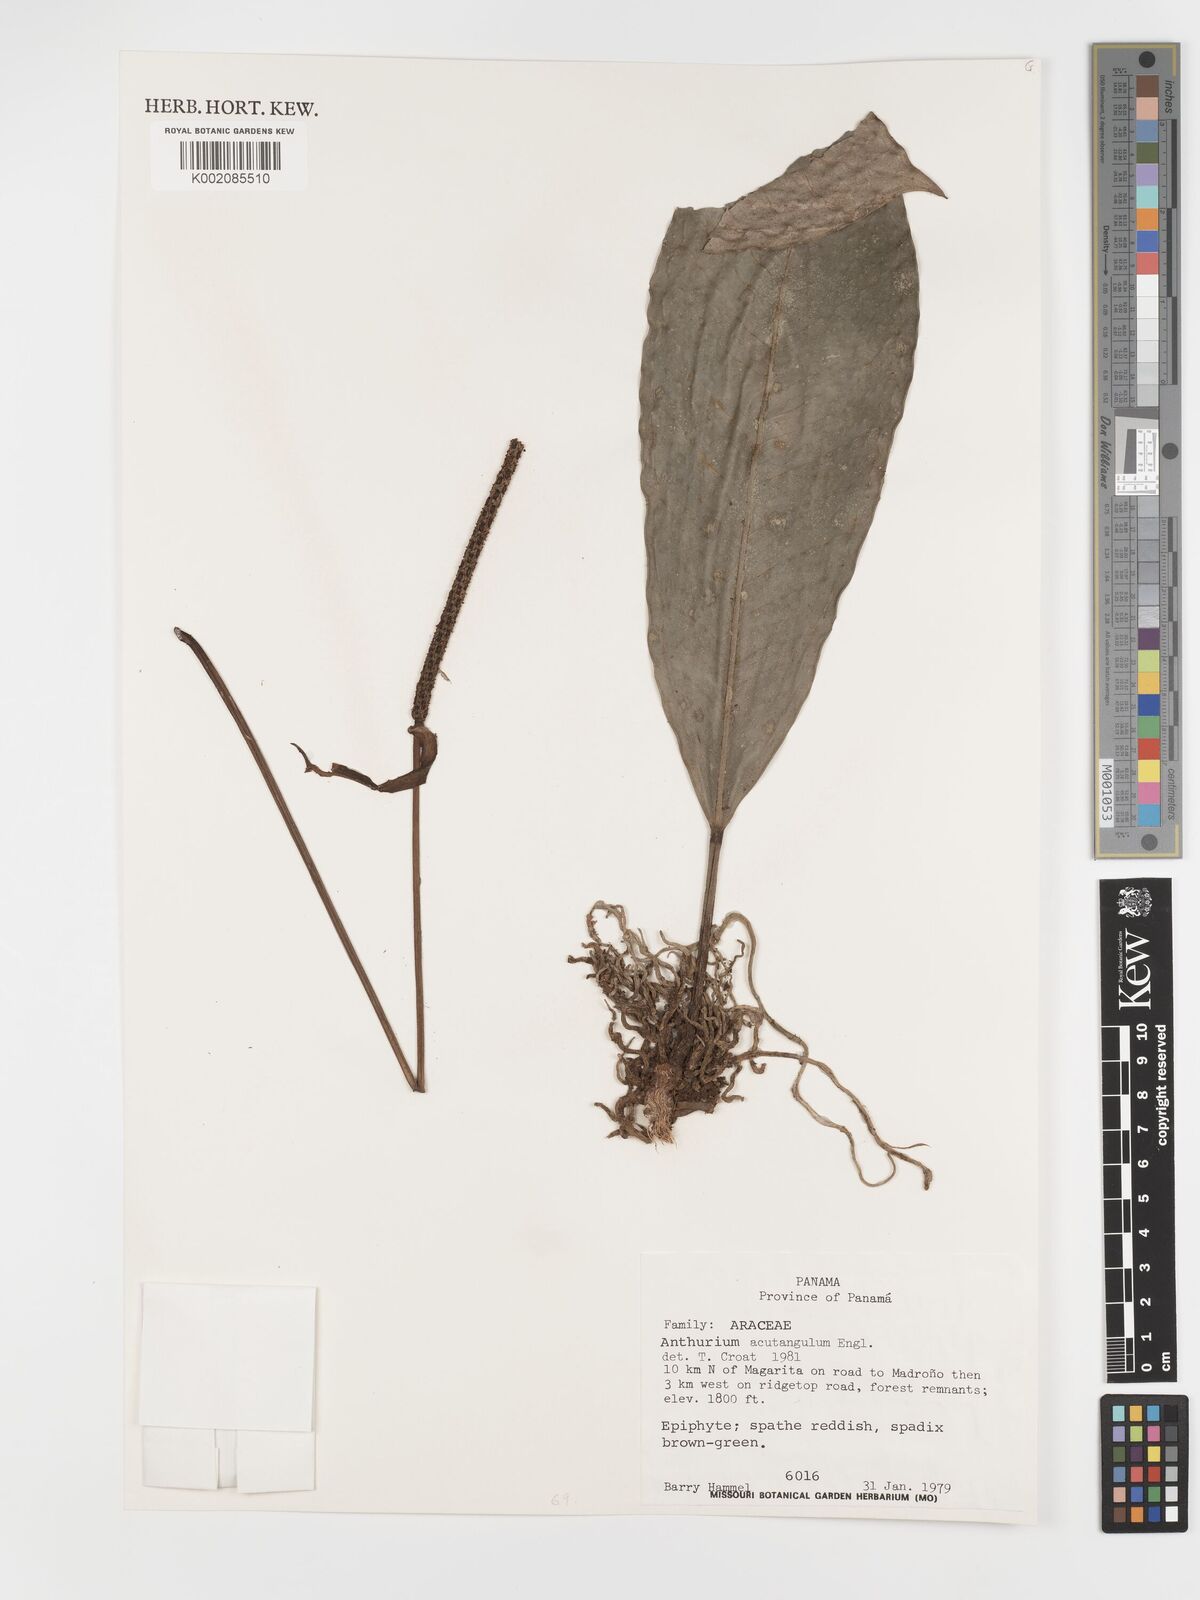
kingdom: Plantae
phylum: Tracheophyta
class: Liliopsida
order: Alismatales
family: Araceae
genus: Anthurium
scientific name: Anthurium acutangulum
